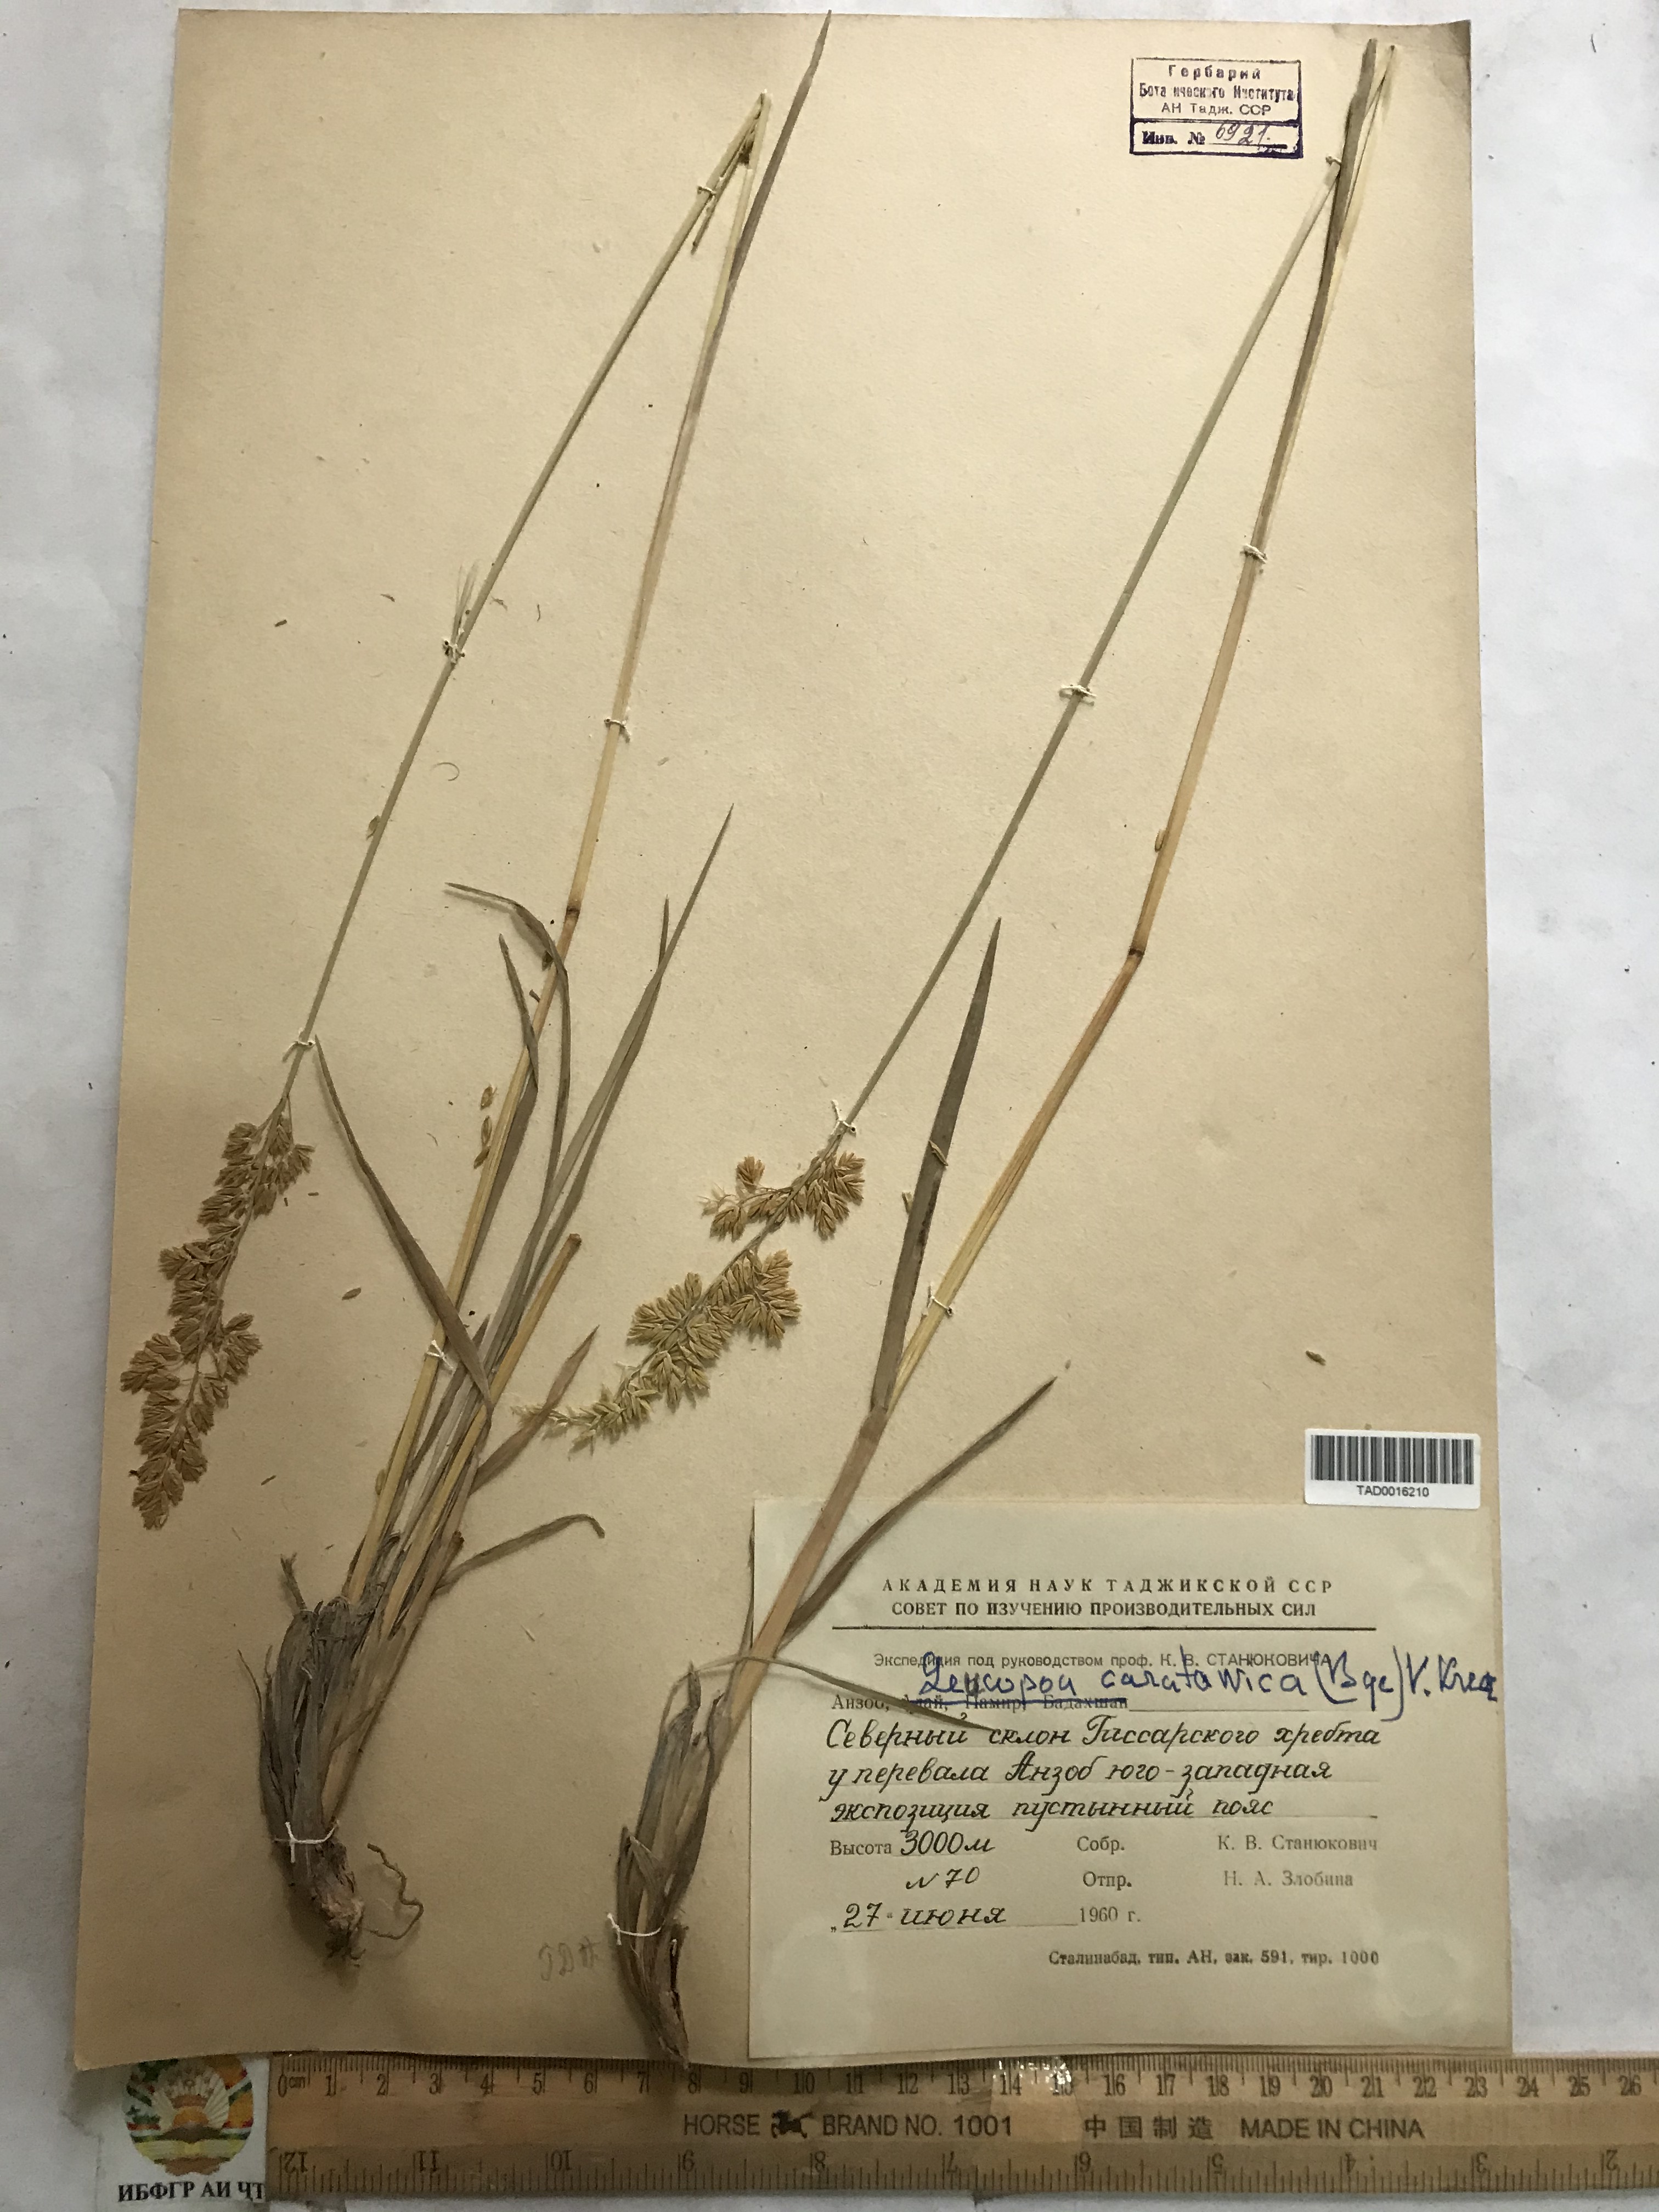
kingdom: Plantae
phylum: Tracheophyta
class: Liliopsida
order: Poales
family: Poaceae
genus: Festuca
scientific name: Festuca karatavica
